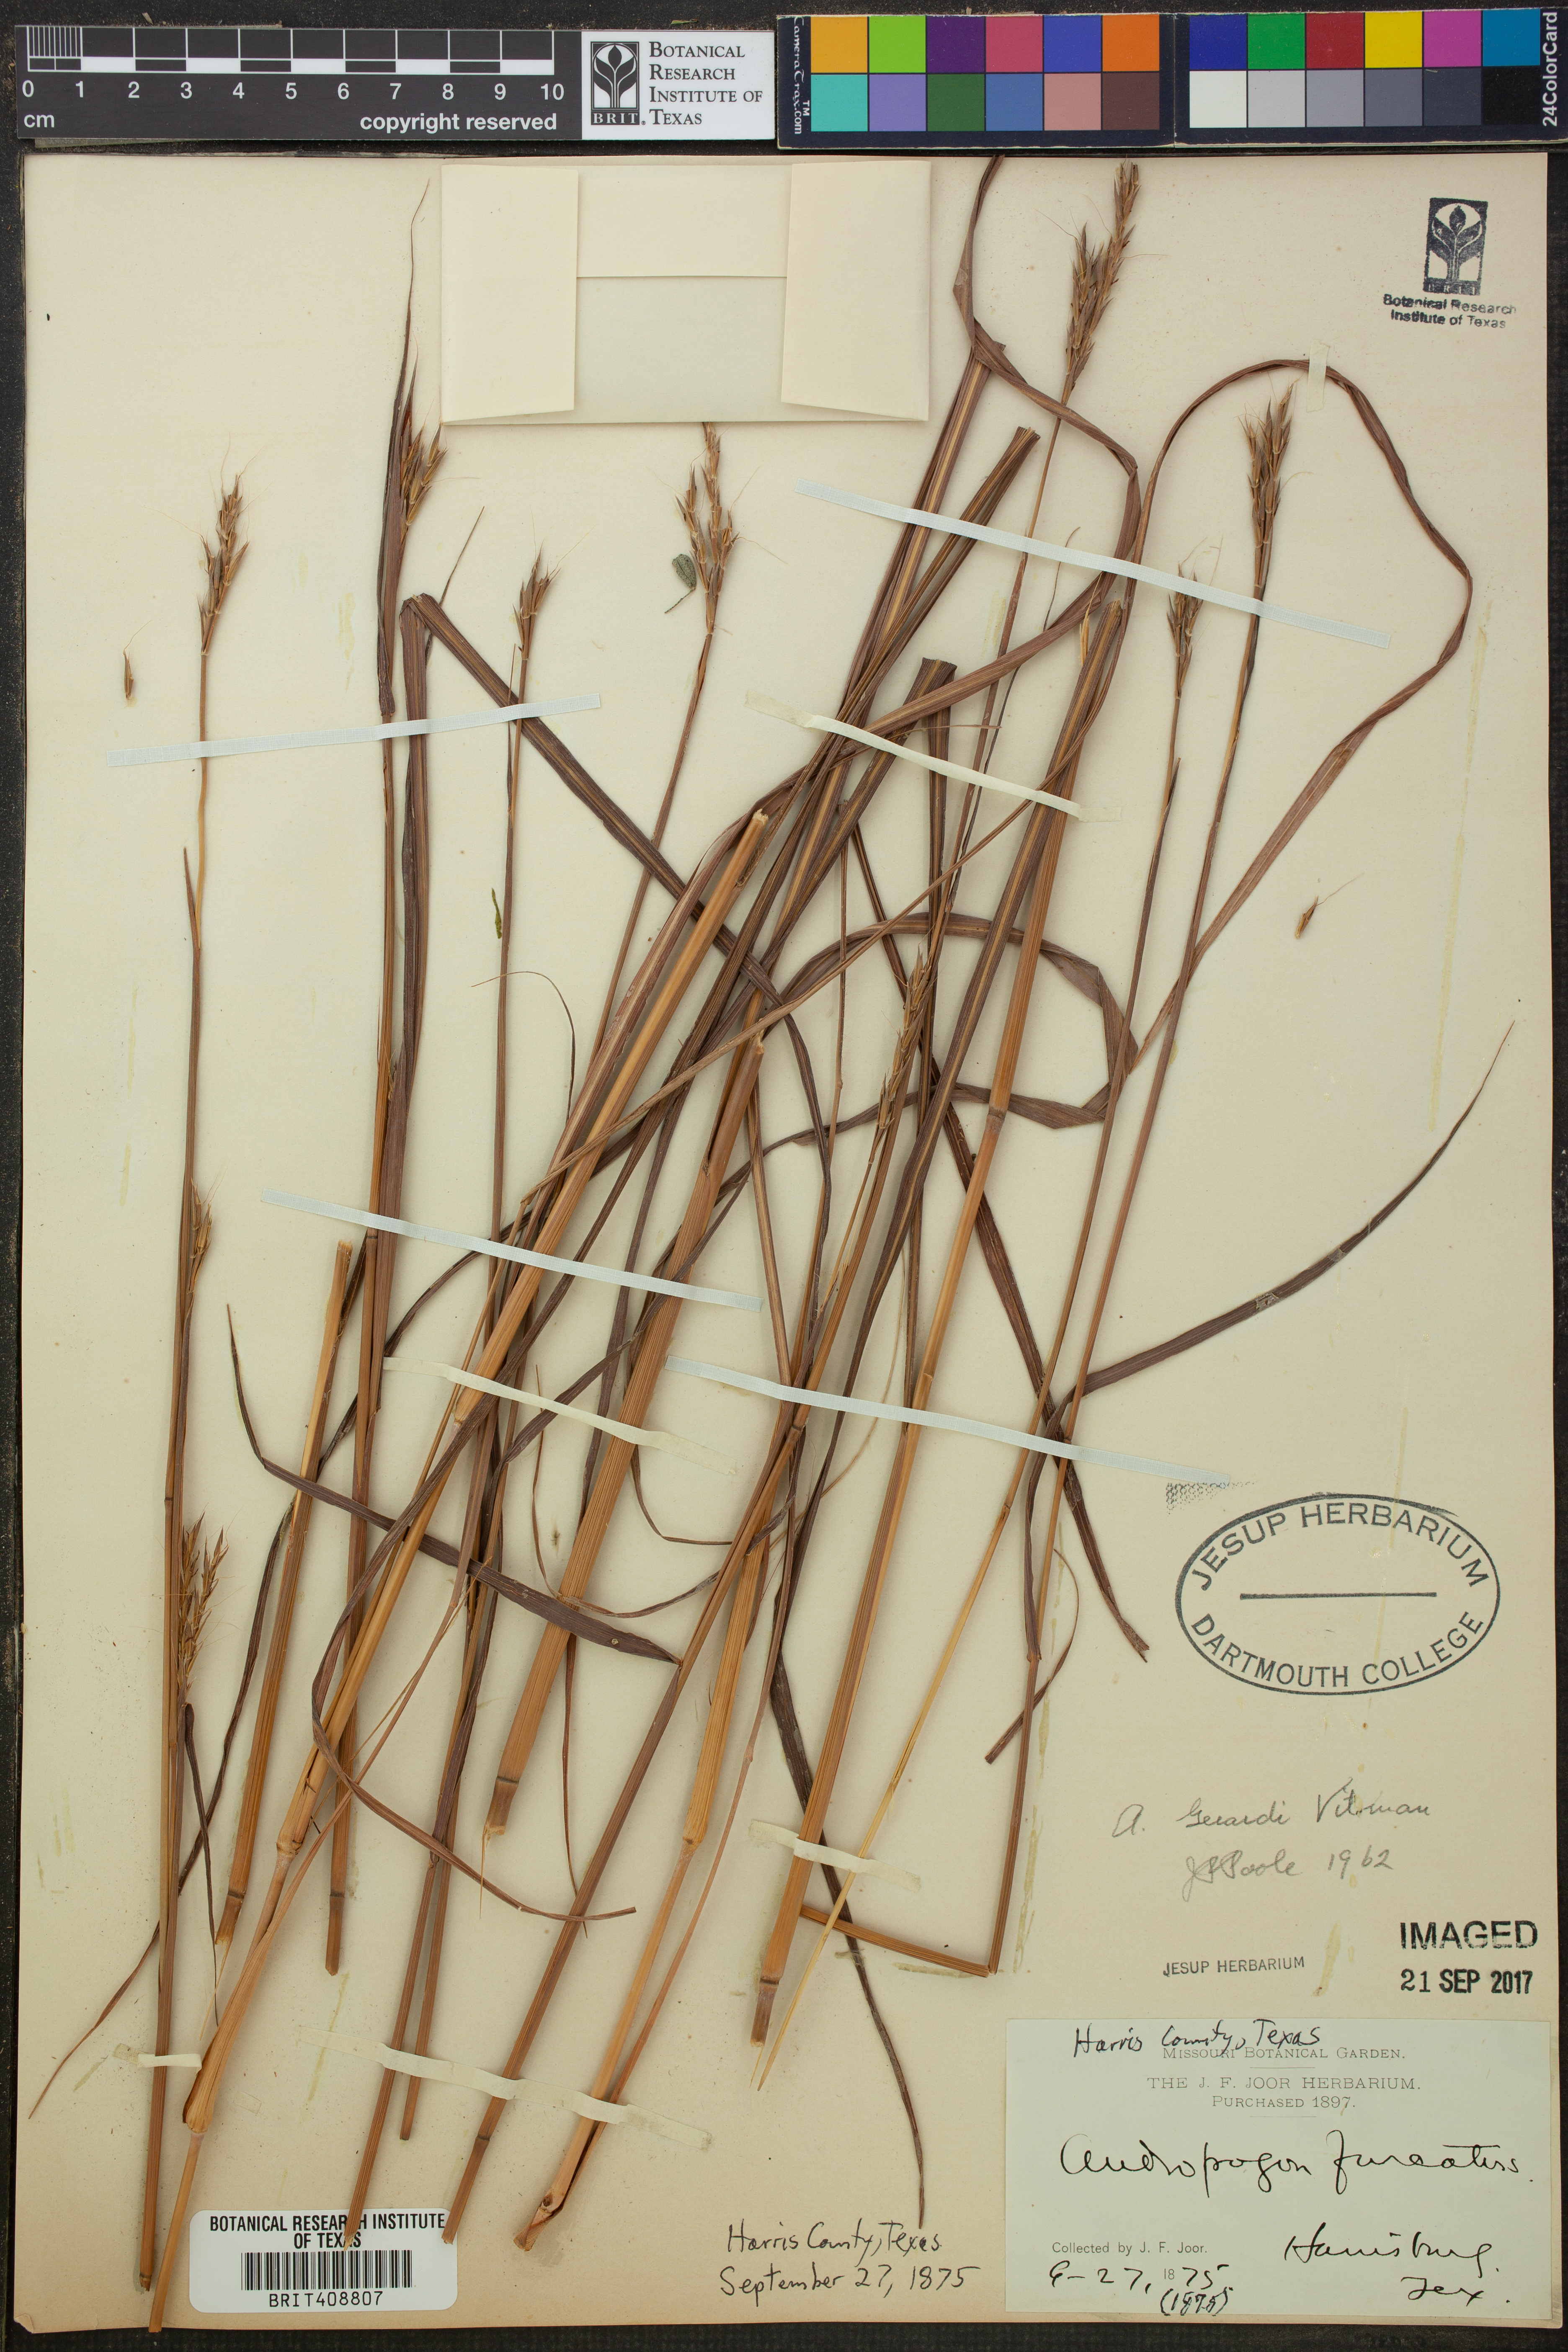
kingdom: Plantae
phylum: Tracheophyta
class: Liliopsida
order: Poales
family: Poaceae
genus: Andropogon
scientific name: Andropogon gerardi
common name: Big bluestem
